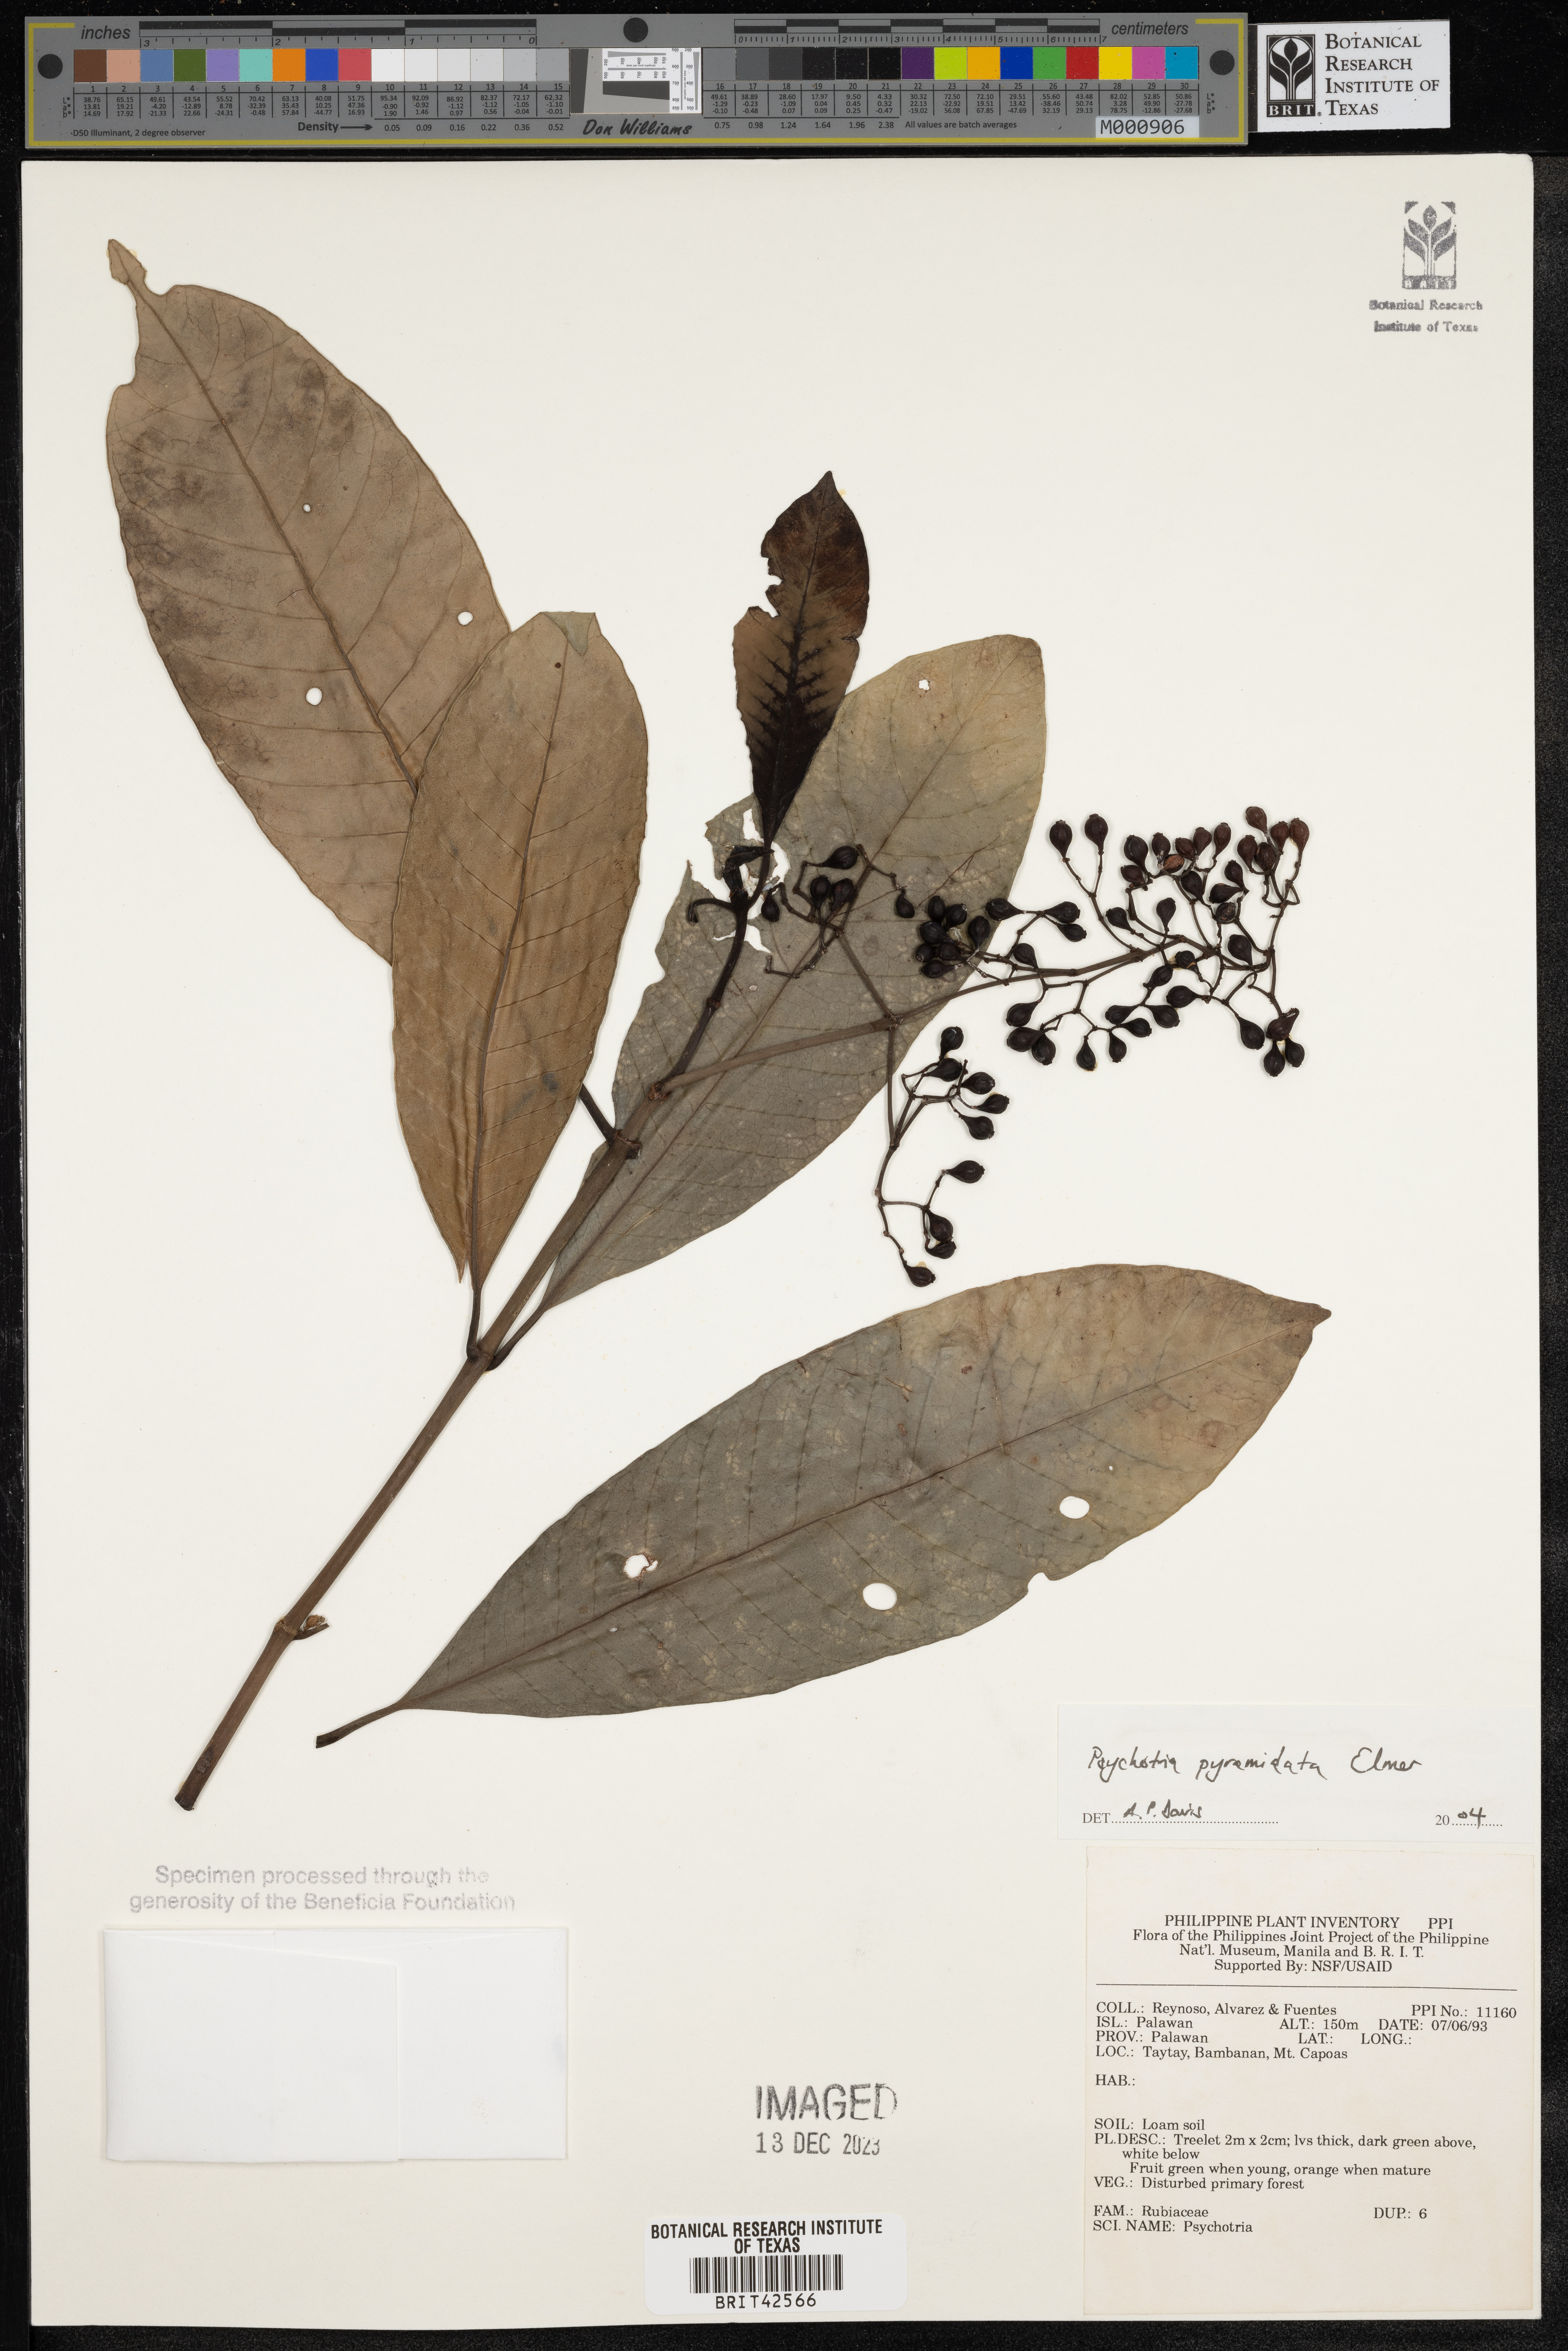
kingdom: Plantae
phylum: Tracheophyta
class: Magnoliopsida
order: Gentianales
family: Rubiaceae
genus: Psychotria
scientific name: Psychotria pyramidata
